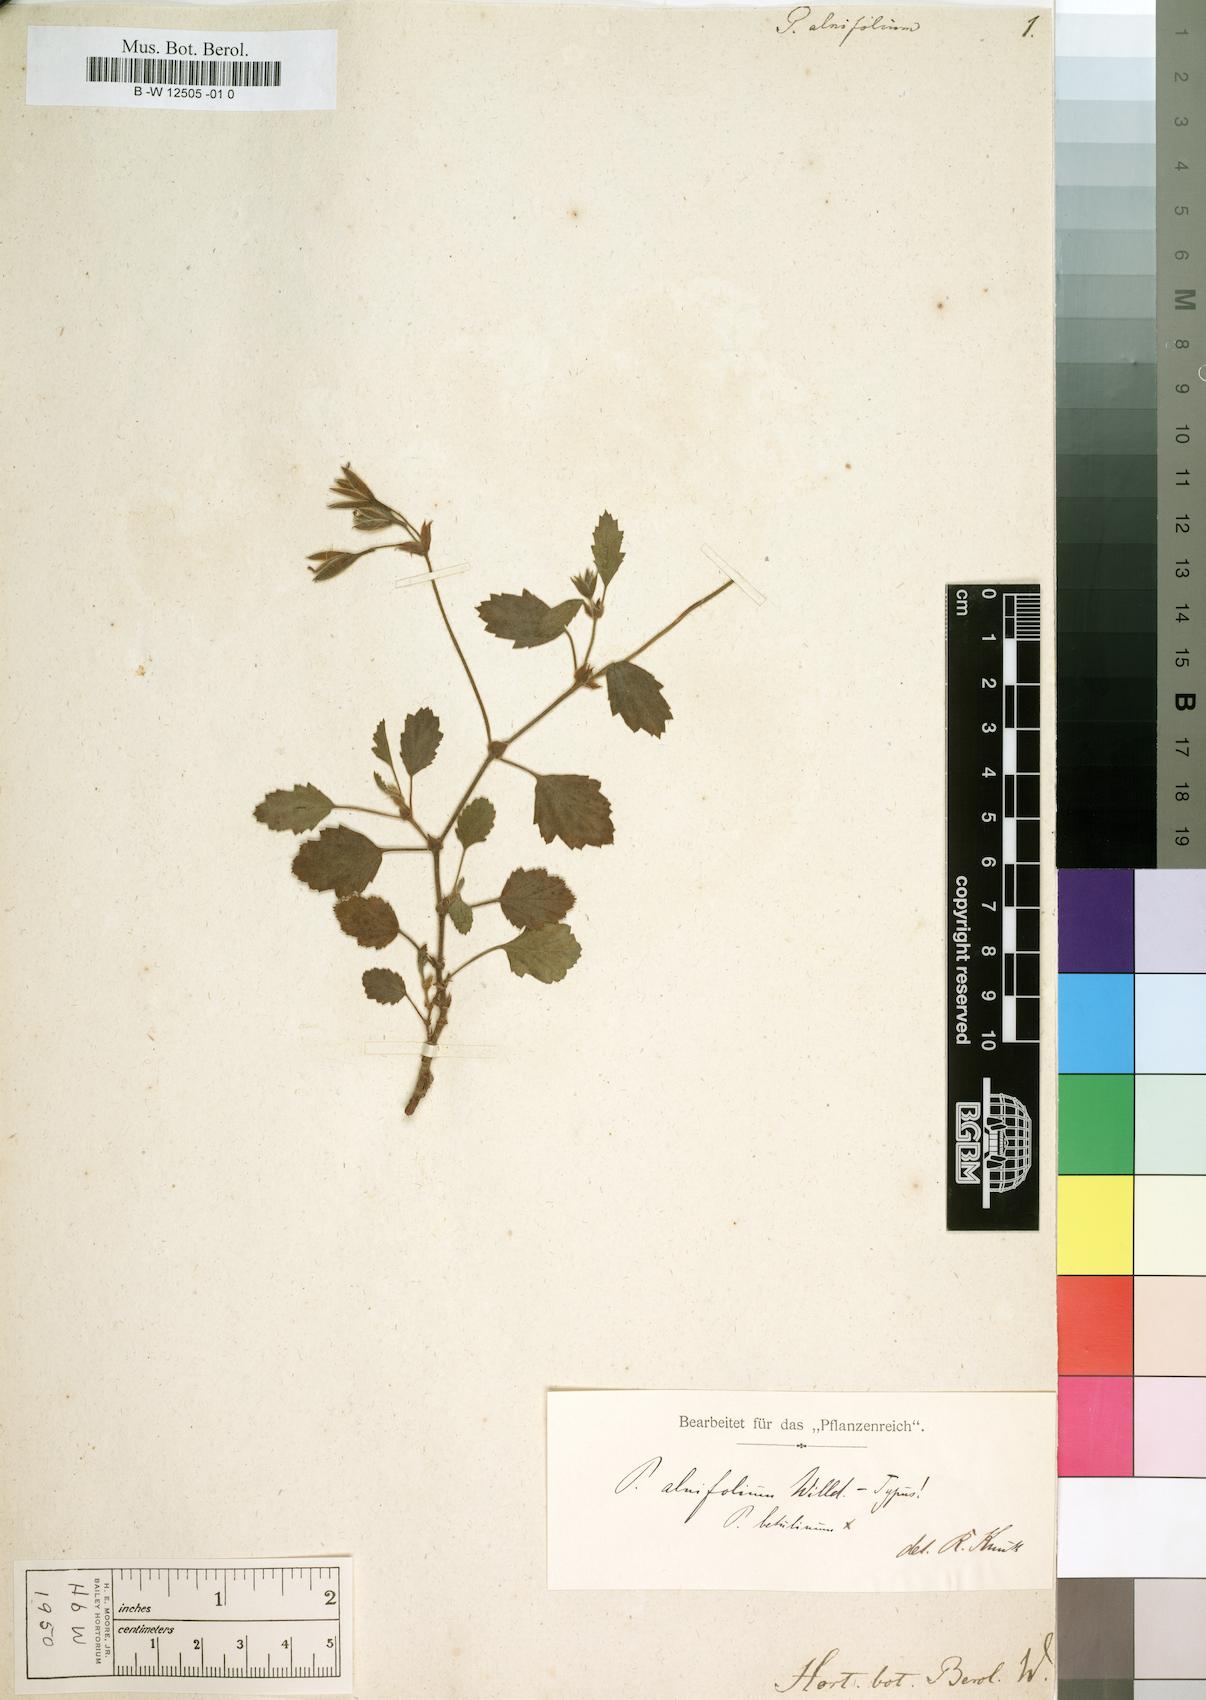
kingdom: Plantae
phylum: Tracheophyta
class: Magnoliopsida
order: Geraniales
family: Geraniaceae
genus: Pelargonium
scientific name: Pelargonium alnifolium
